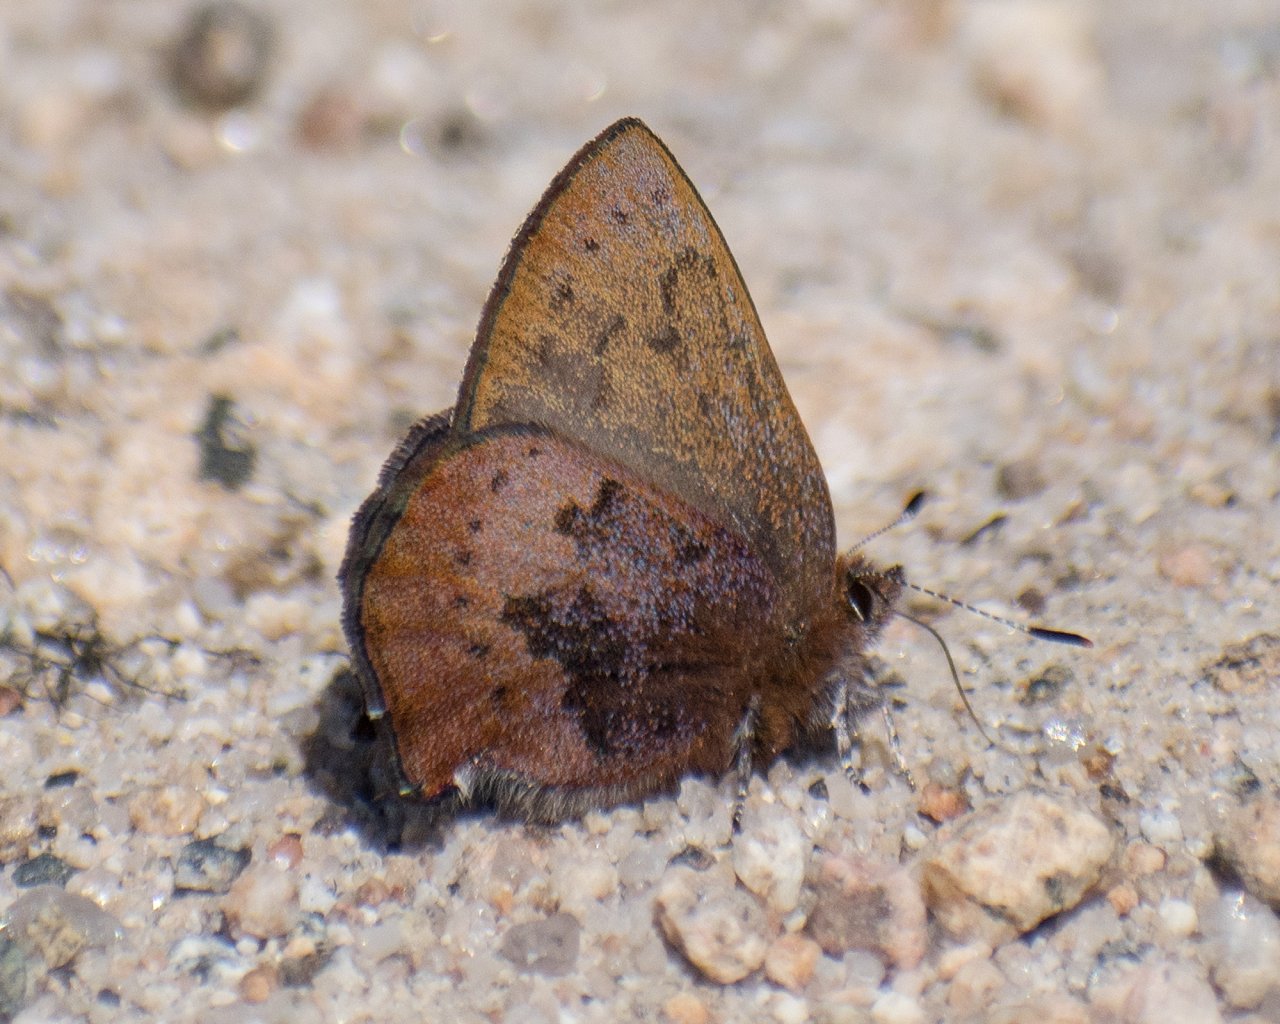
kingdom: Animalia
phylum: Arthropoda
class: Insecta
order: Lepidoptera
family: Lycaenidae
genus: Incisalia
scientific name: Incisalia irioides
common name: Brown Elfin
